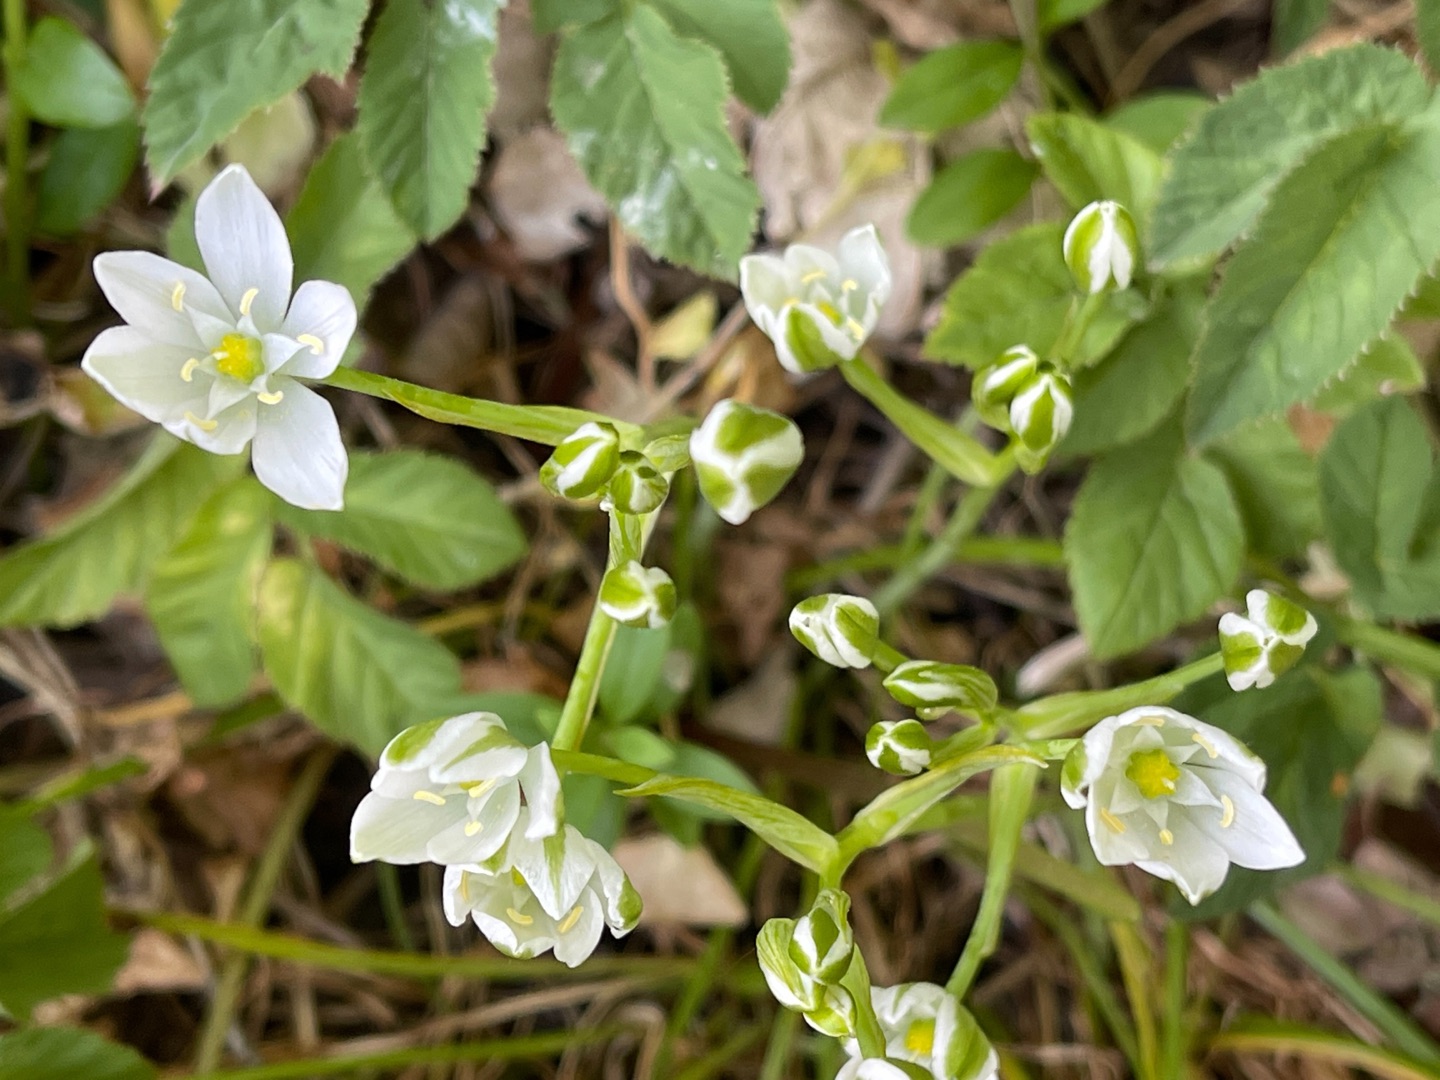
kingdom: Plantae
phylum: Tracheophyta
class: Liliopsida
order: Asparagales
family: Asparagaceae
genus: Ornithogalum
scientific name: Ornithogalum umbellatum
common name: Kost-fuglemælk
